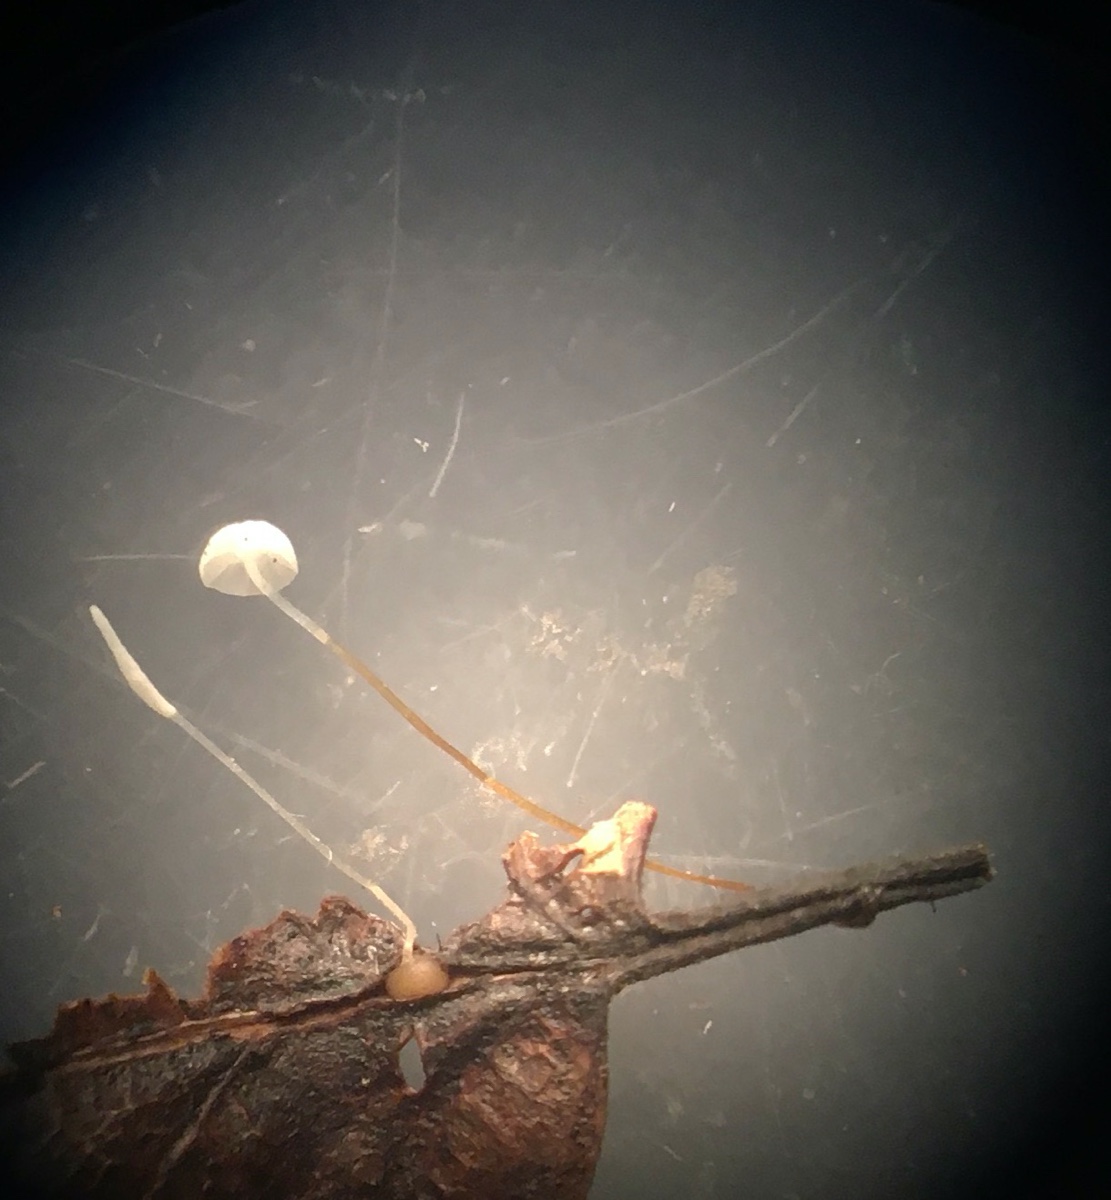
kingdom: Fungi
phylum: Basidiomycota
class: Agaricomycetes
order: Agaricales
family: Physalacriaceae
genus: Rhizomarasmius
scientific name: Rhizomarasmius setosus
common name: bøgeblads-bruskhat
